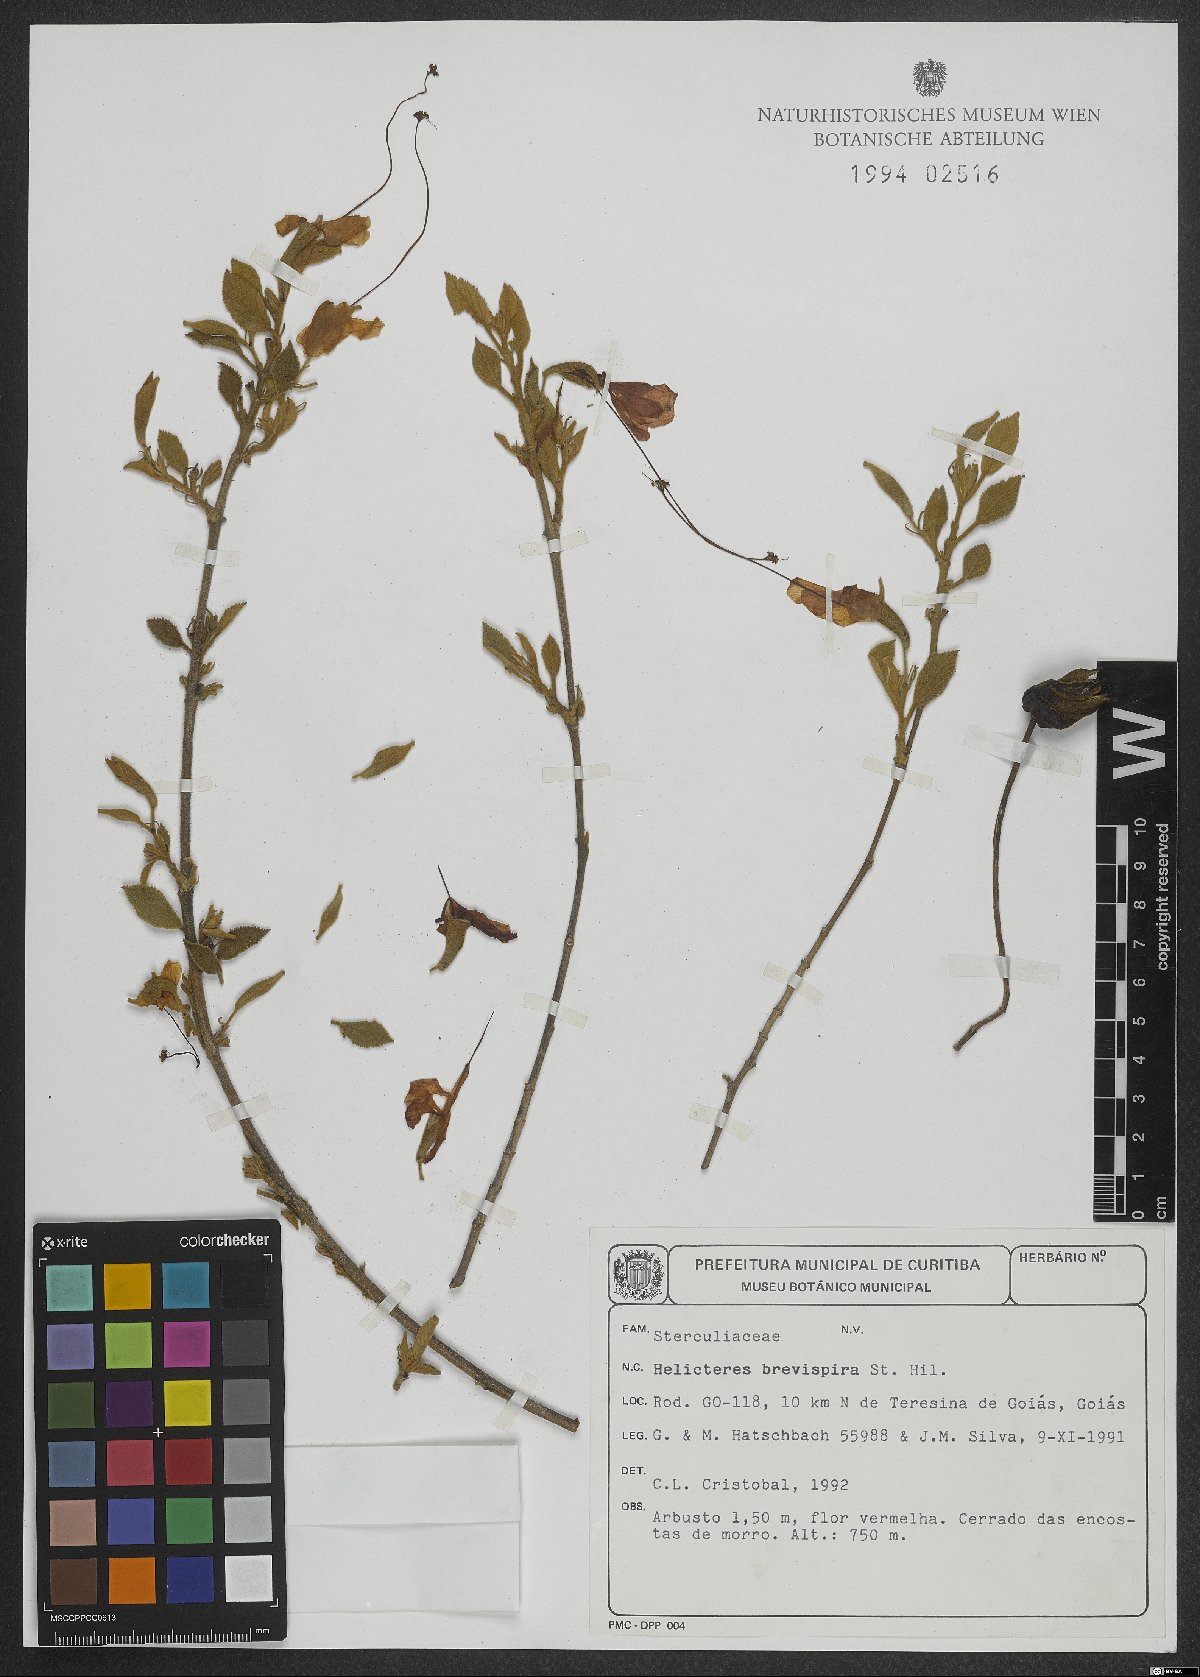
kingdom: Plantae
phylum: Tracheophyta
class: Magnoliopsida
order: Malvales
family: Malvaceae
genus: Helicteres
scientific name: Helicteres brevispira
